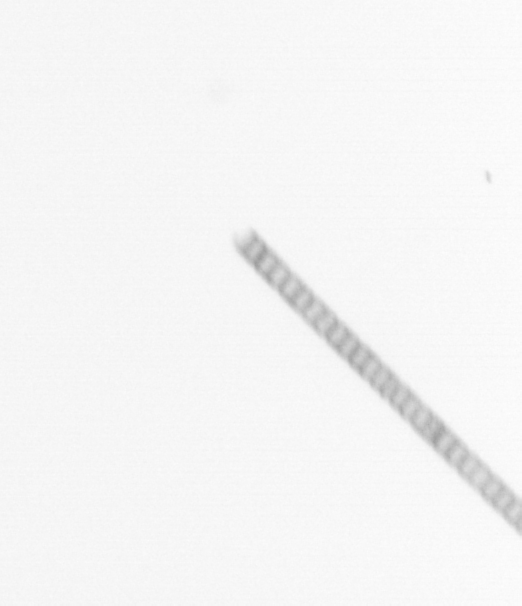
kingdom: Chromista
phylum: Ochrophyta
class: Bacillariophyceae
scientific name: Bacillariophyceae
